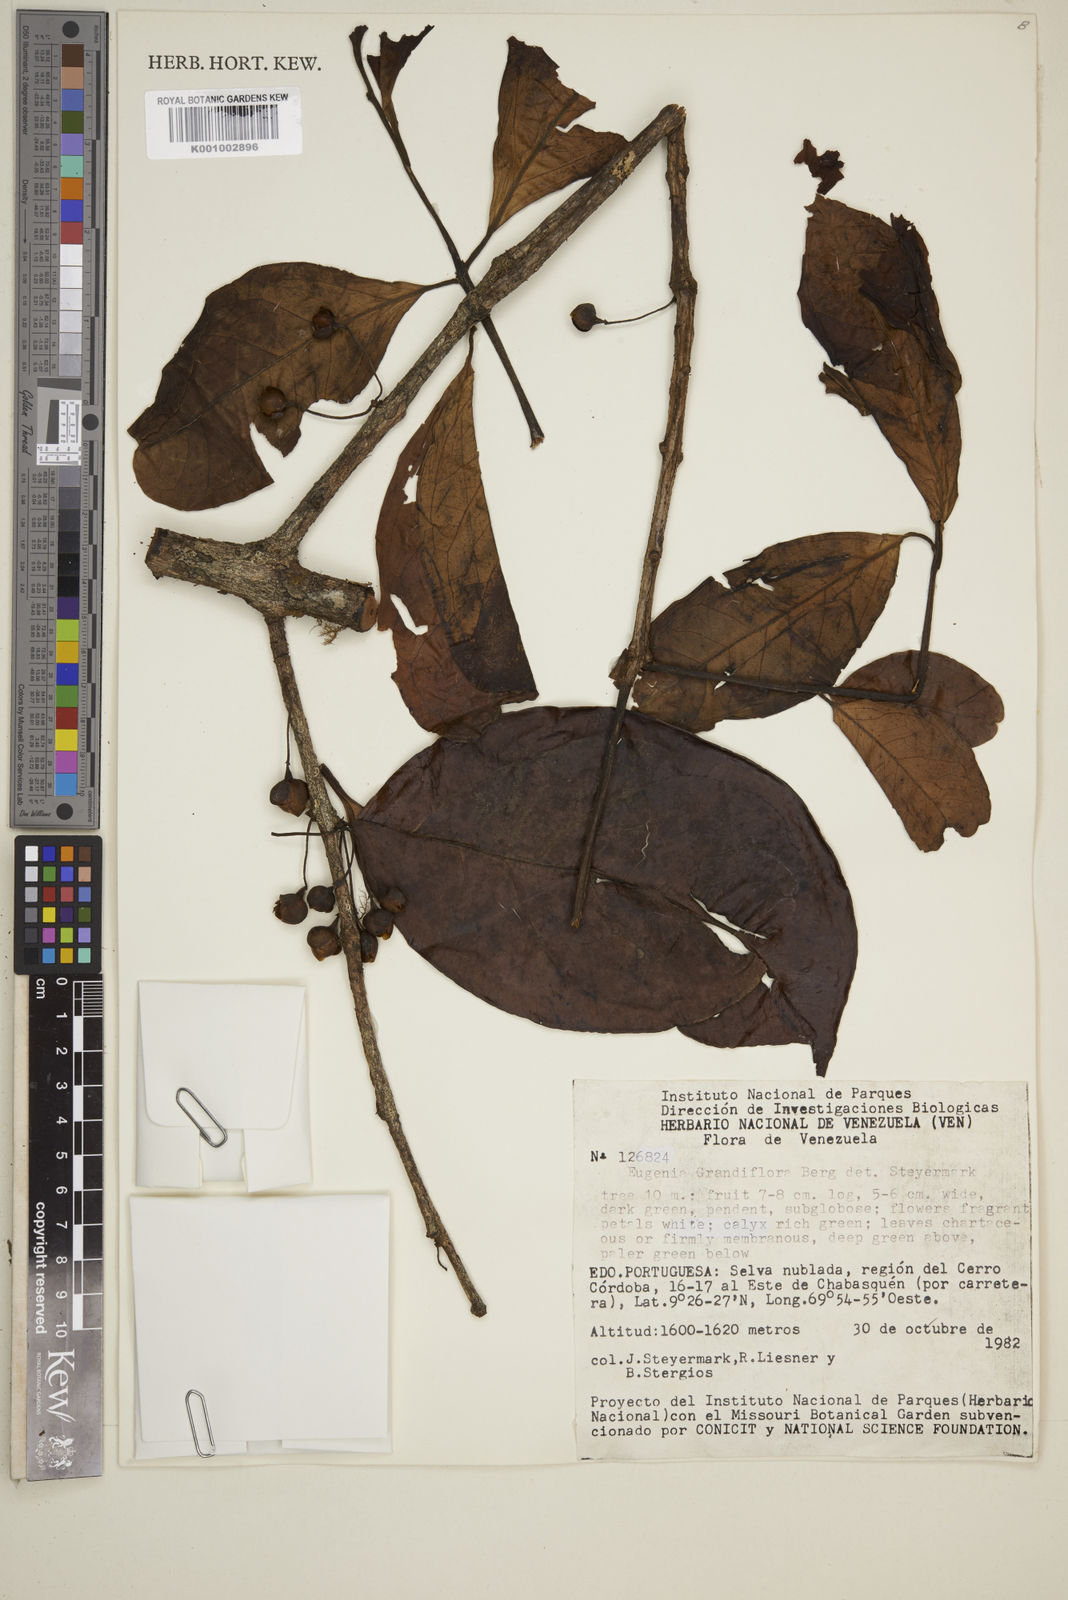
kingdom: Plantae
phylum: Tracheophyta
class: Magnoliopsida
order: Myrtales
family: Myrtaceae
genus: Eugenia
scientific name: Eugenia grandiflora
